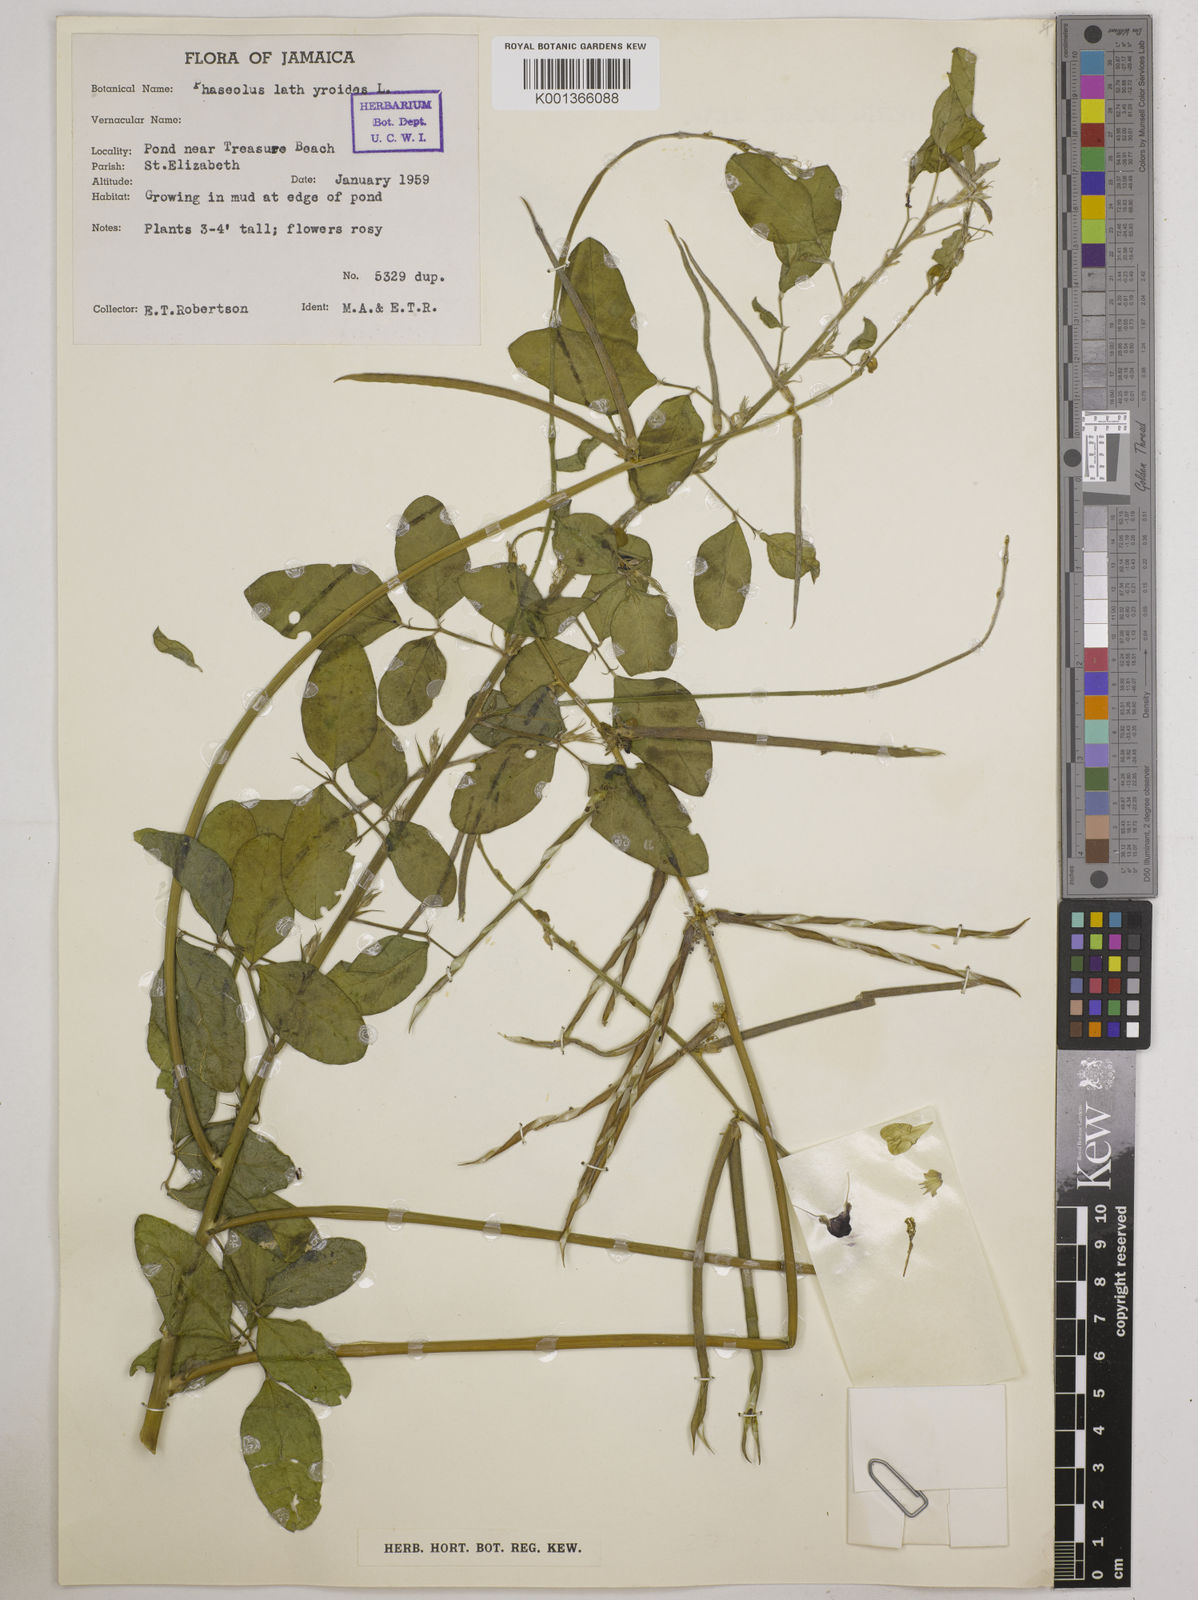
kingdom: Plantae
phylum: Tracheophyta
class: Magnoliopsida
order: Fabales
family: Fabaceae
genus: Macroptilium
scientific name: Macroptilium lathyroides
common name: Wild bushbean
